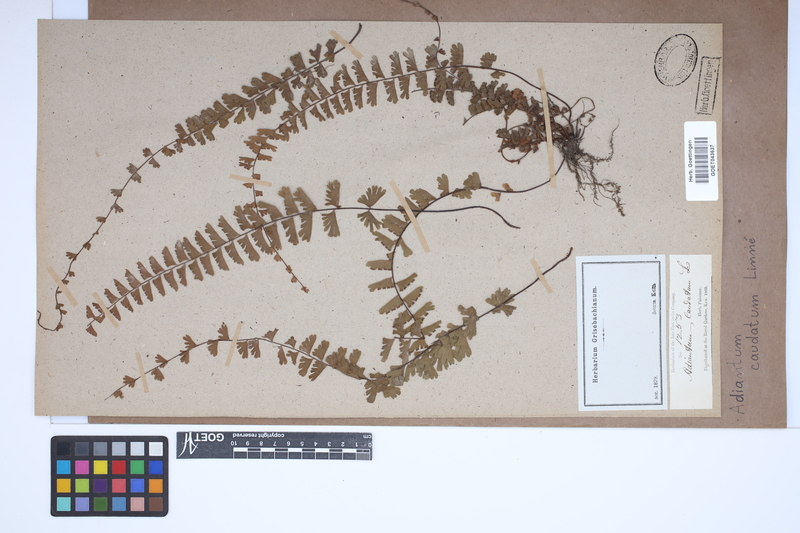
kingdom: Plantae
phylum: Tracheophyta
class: Polypodiopsida
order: Polypodiales
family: Pteridaceae
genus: Adiantum
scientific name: Adiantum caudatum
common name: Tailed maidenhair
